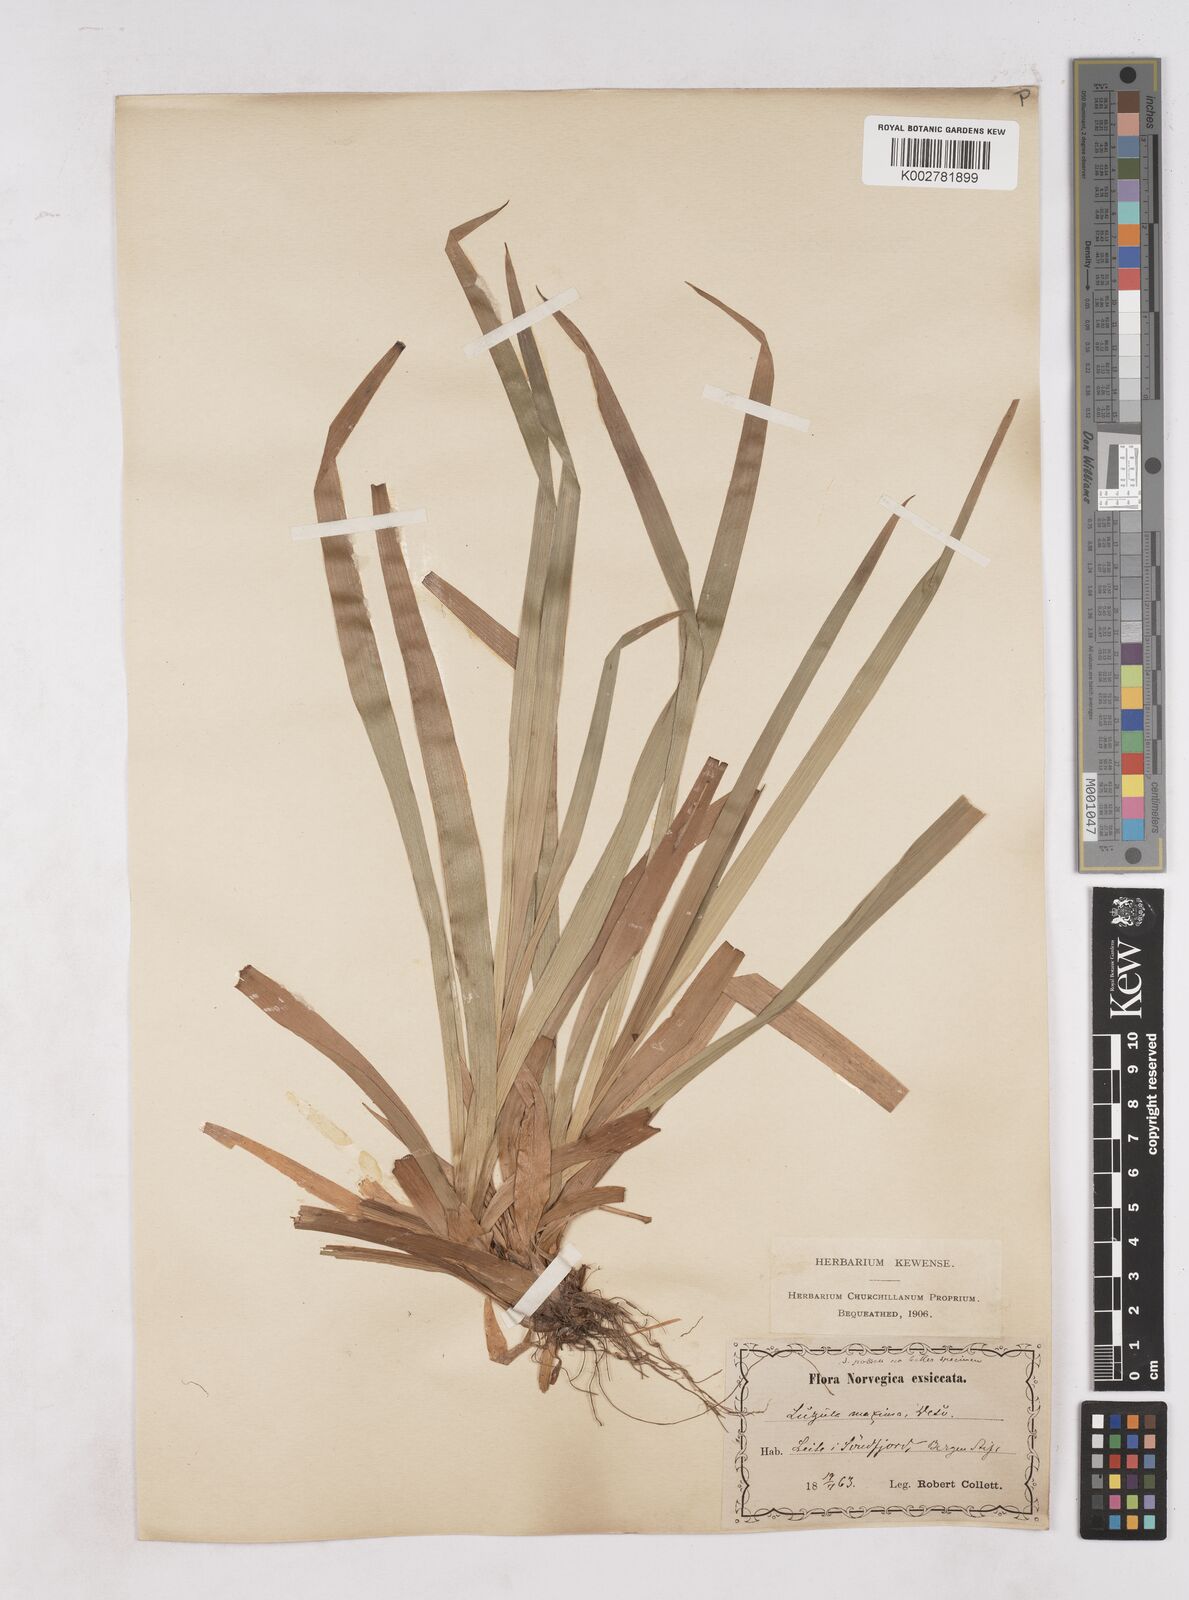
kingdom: Plantae
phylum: Tracheophyta
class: Liliopsida
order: Poales
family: Juncaceae
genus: Luzula
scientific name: Luzula sylvatica
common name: Great wood-rush
